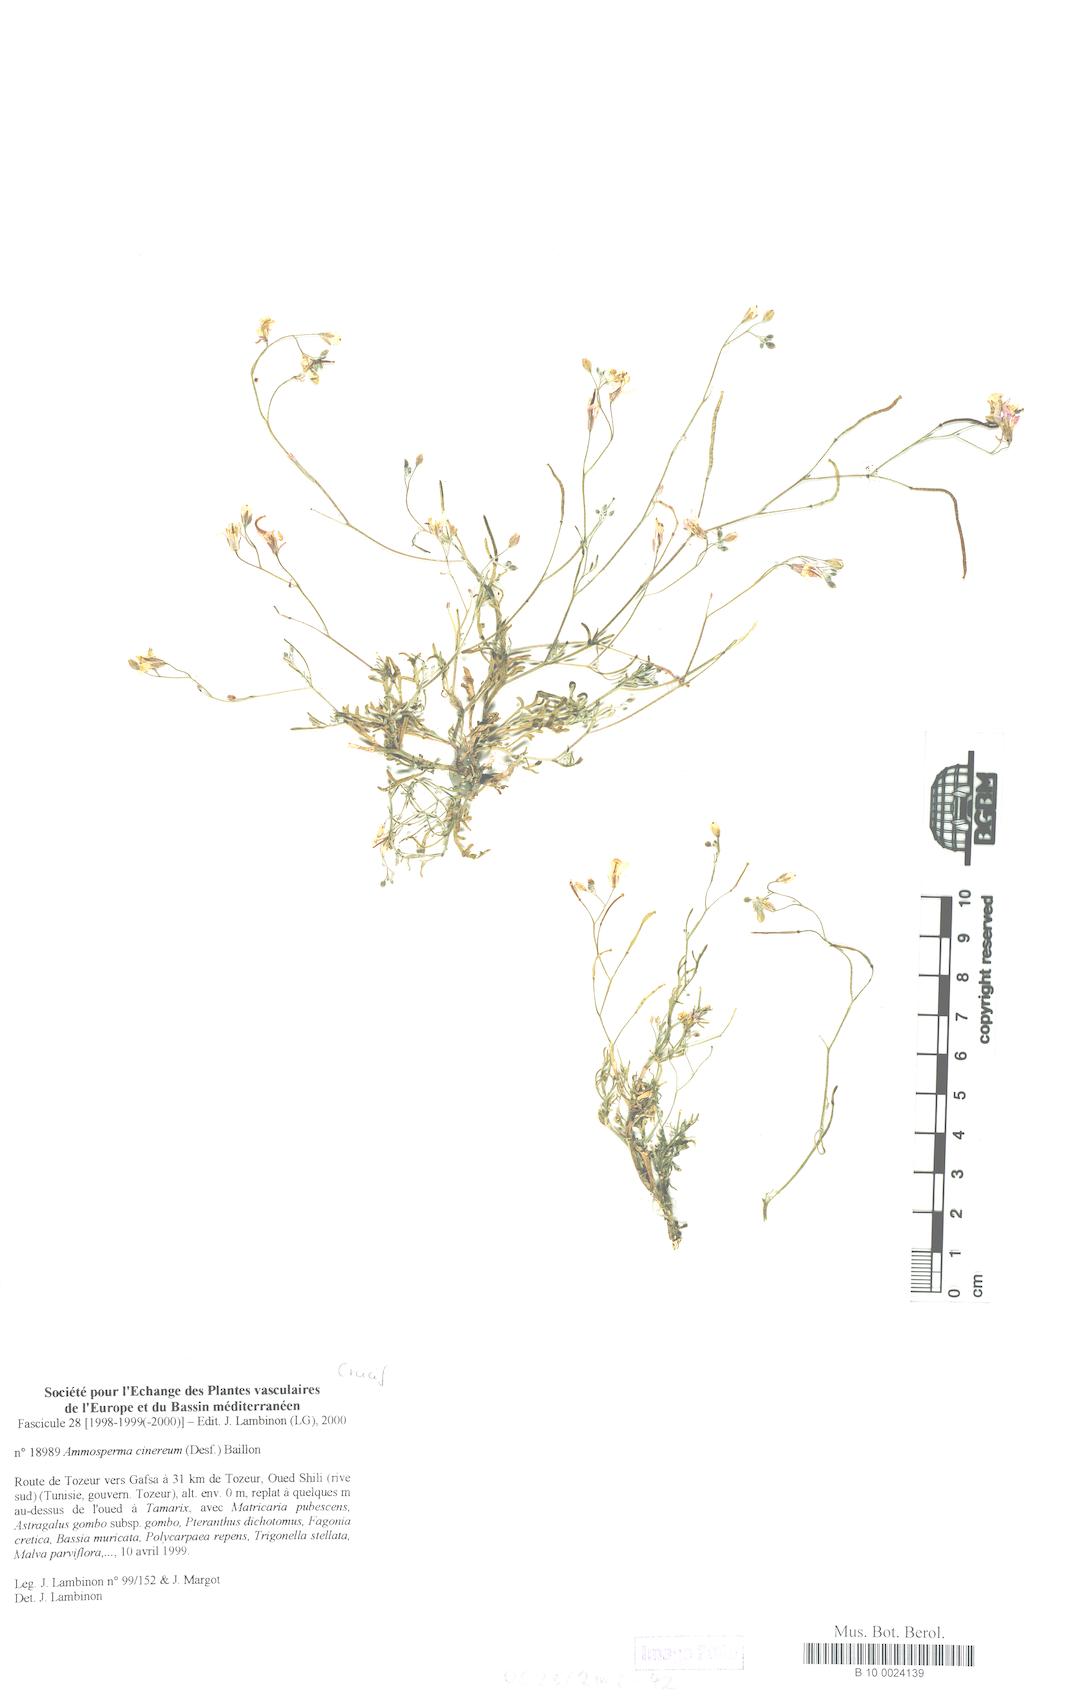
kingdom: Plantae
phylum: Tracheophyta
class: Magnoliopsida
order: Brassicales
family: Brassicaceae
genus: Ammosperma
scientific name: Ammosperma cinerea
